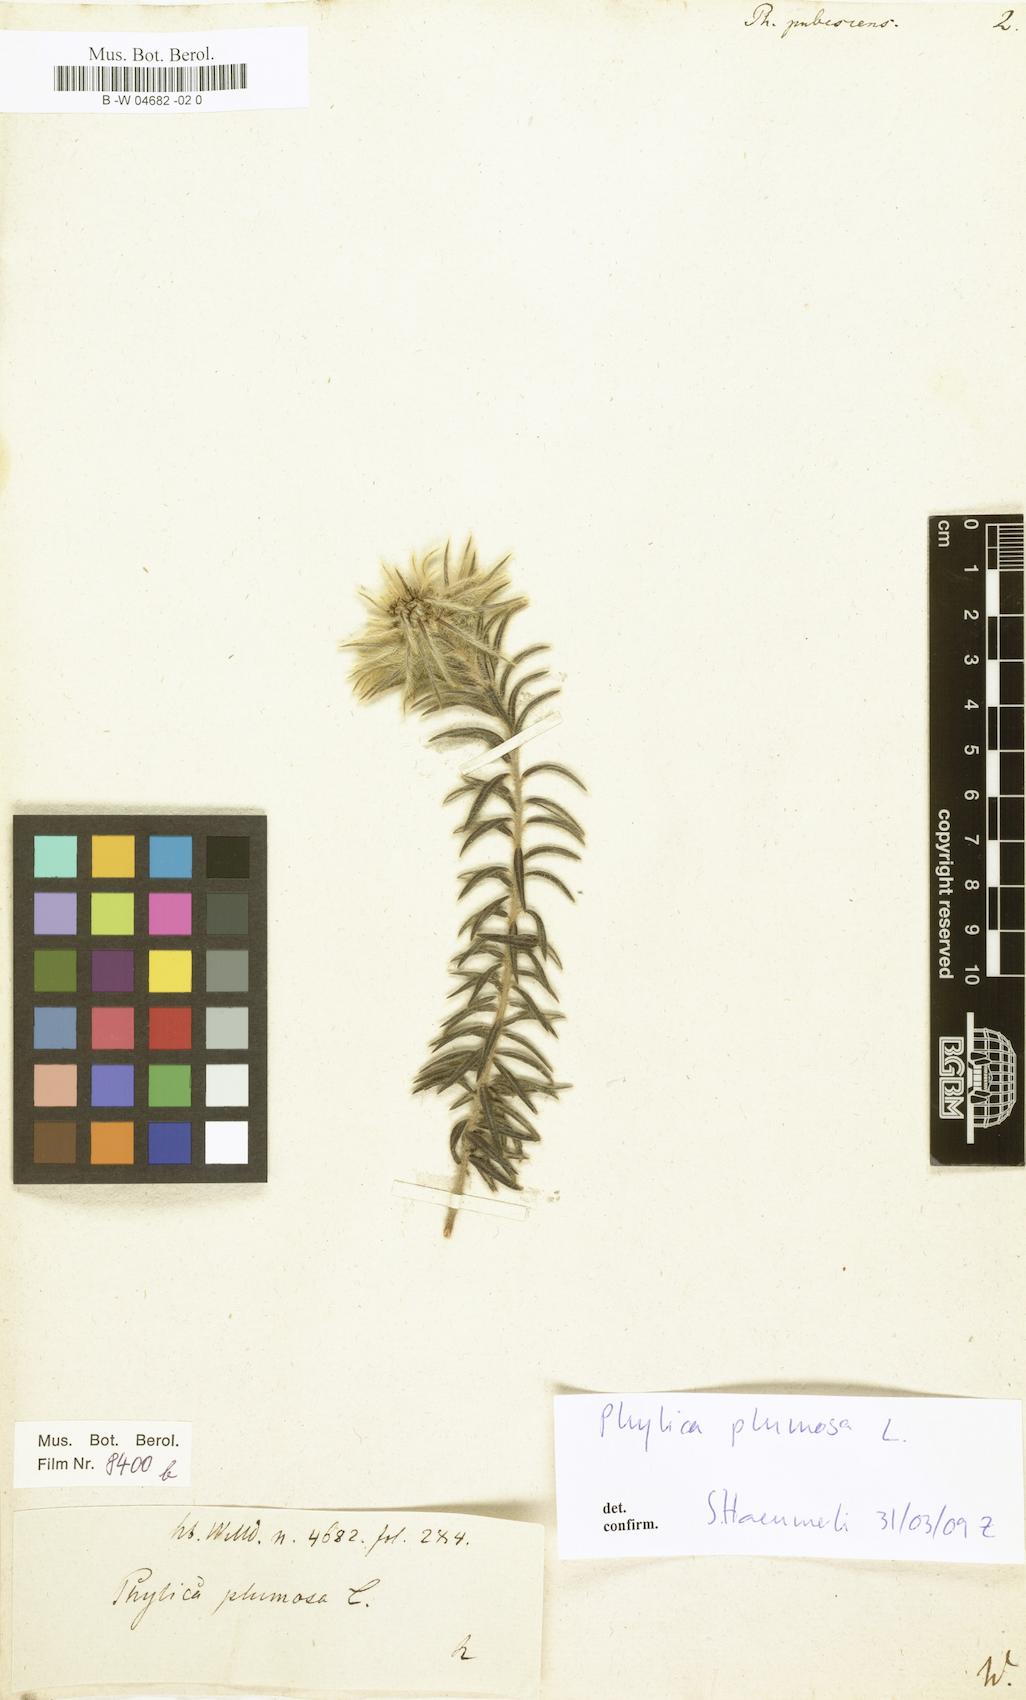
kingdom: Plantae
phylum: Tracheophyta
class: Magnoliopsida
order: Rosales
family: Rhamnaceae
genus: Phylica
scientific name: Phylica pubescens
